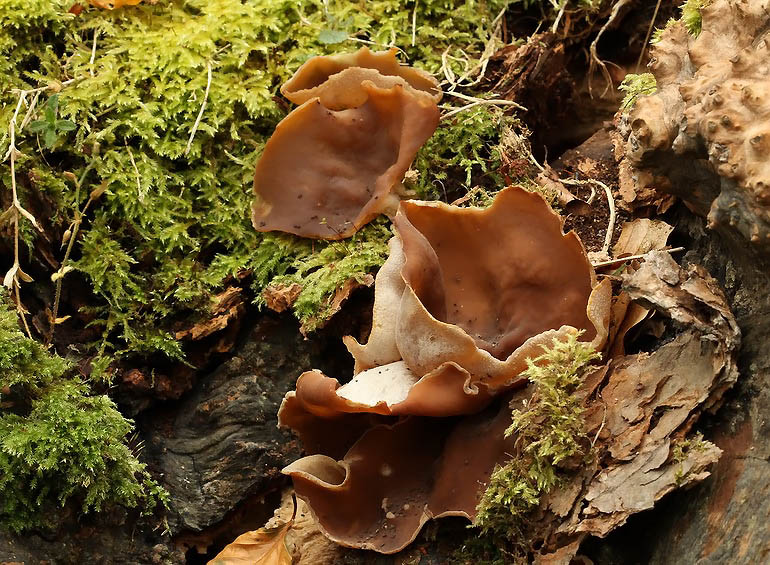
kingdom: Fungi
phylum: Ascomycota
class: Pezizomycetes
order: Pezizales
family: Pezizaceae
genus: Peziza
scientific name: Peziza varia
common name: Ved-bægersvamp
